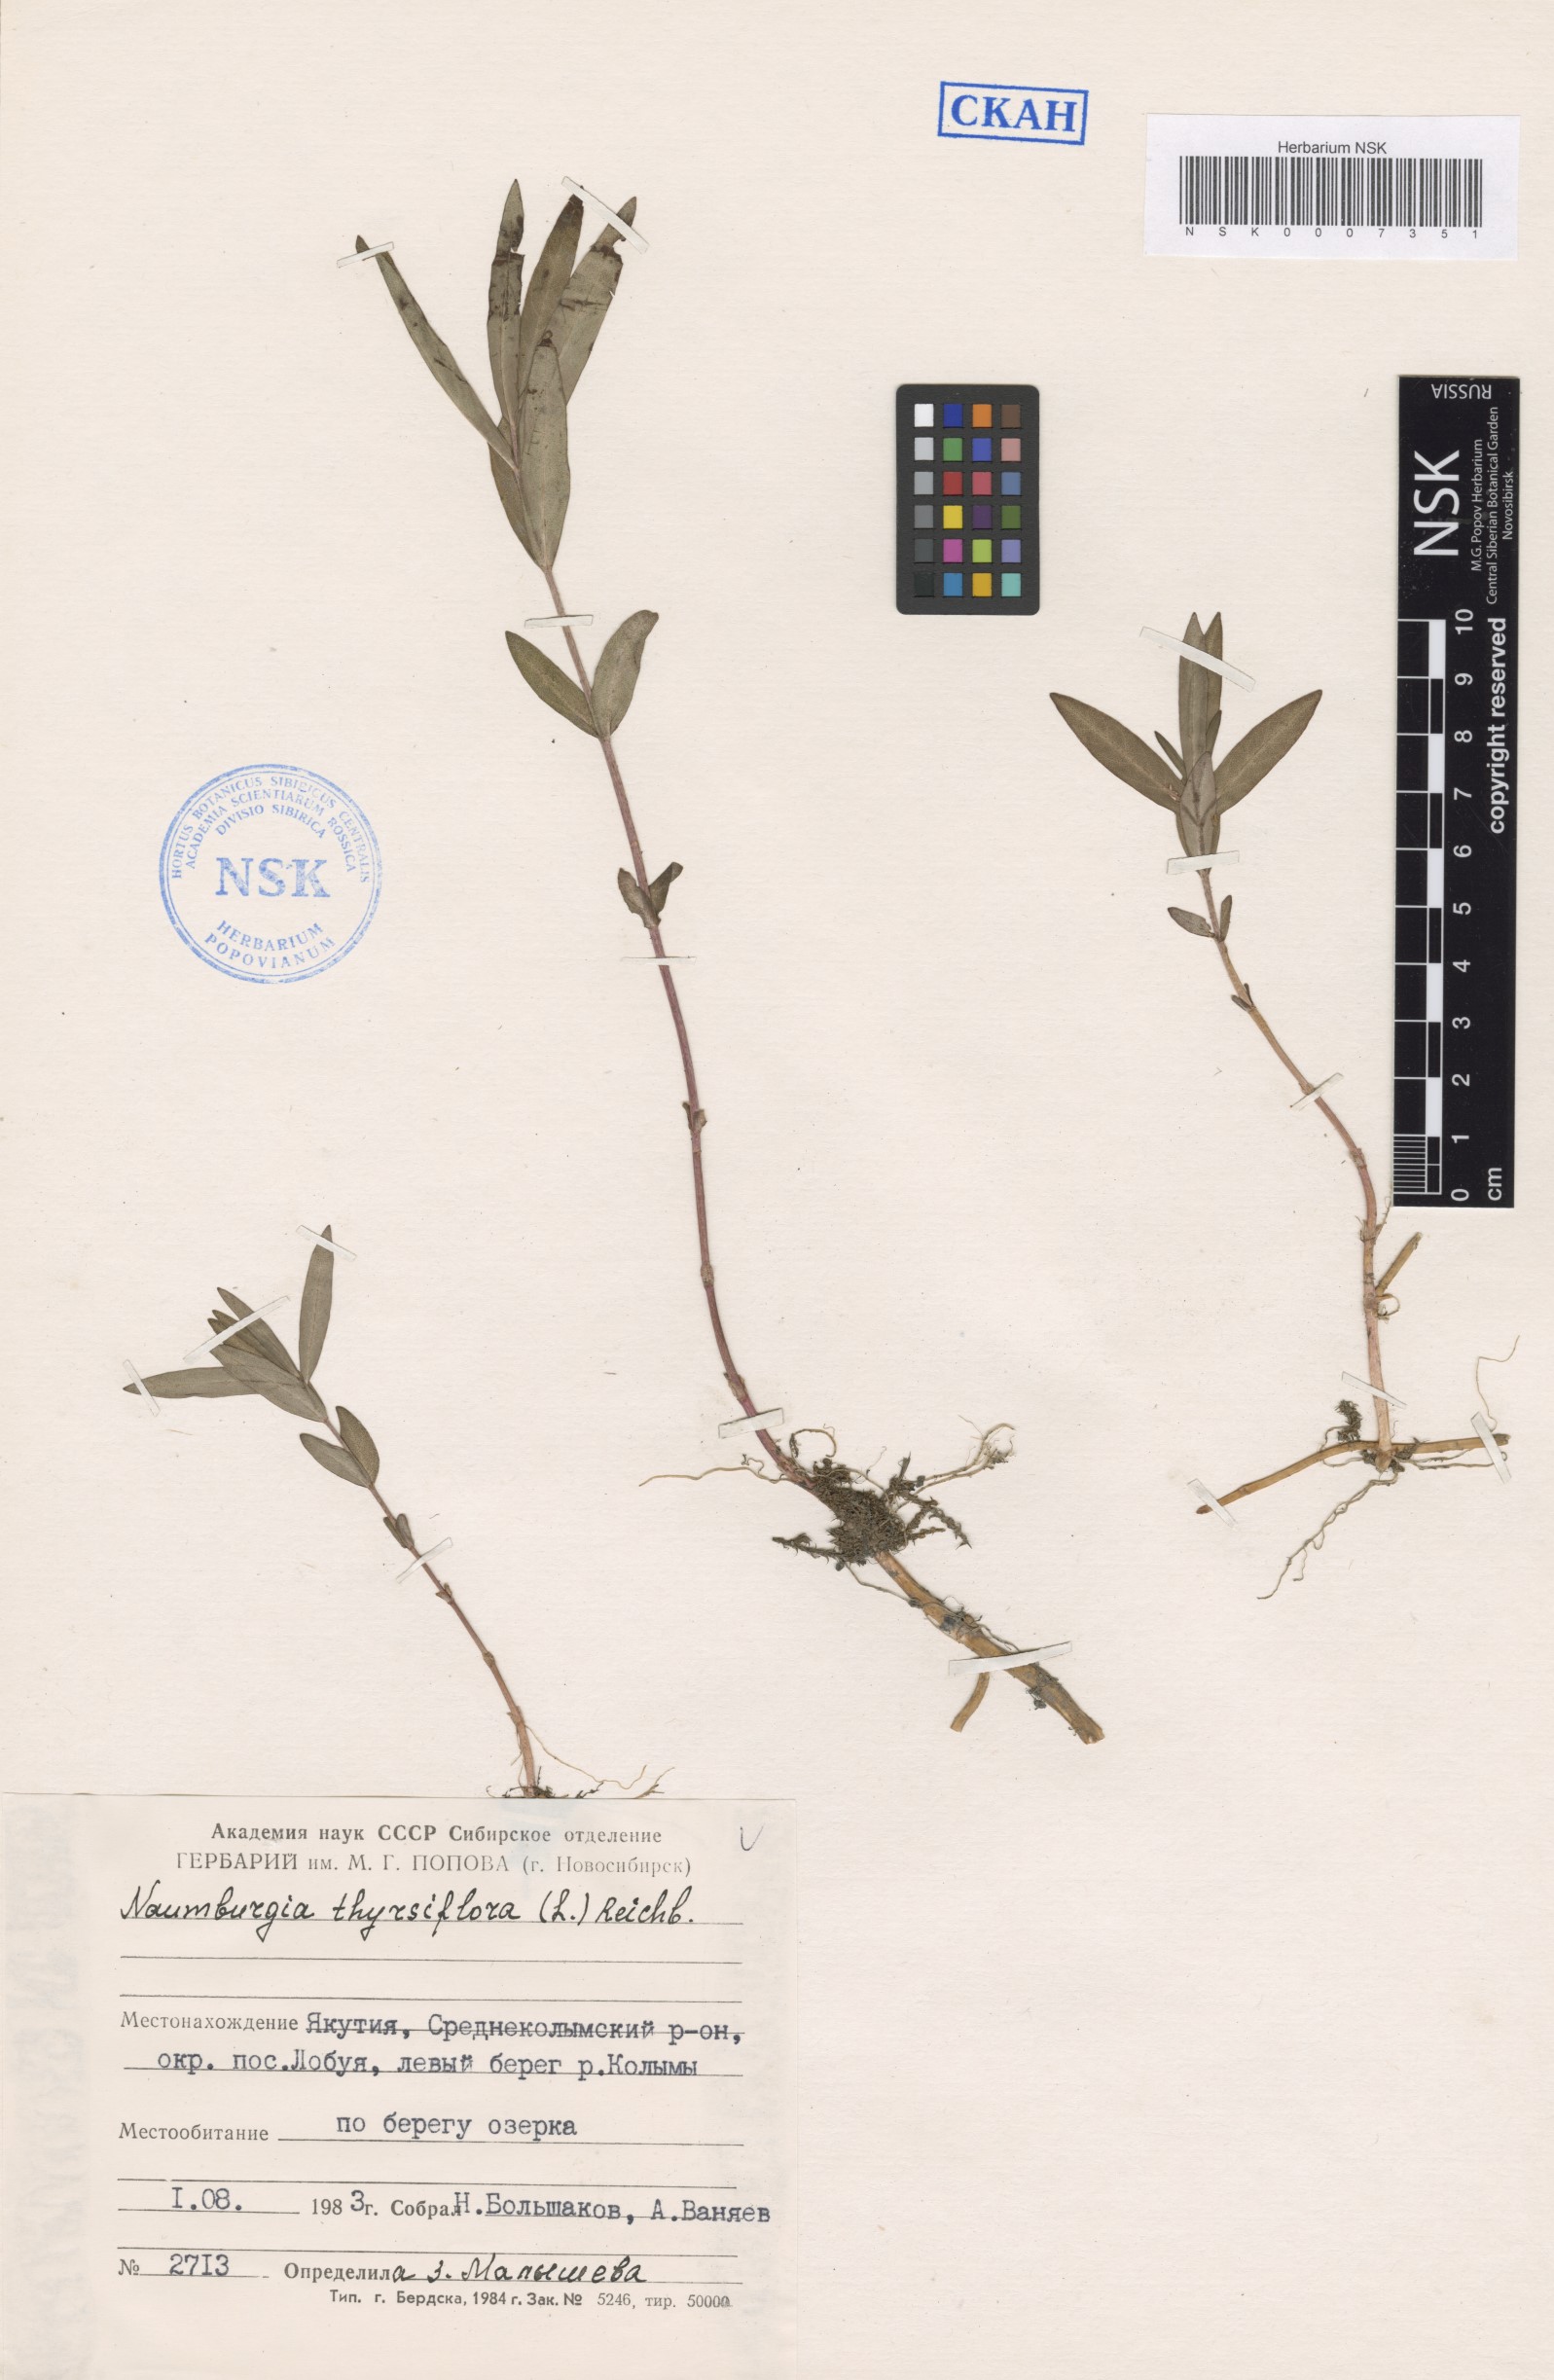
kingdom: Plantae
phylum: Tracheophyta
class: Magnoliopsida
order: Ericales
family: Primulaceae
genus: Lysimachia
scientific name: Lysimachia thyrsiflora
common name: Tufted loosestrife
